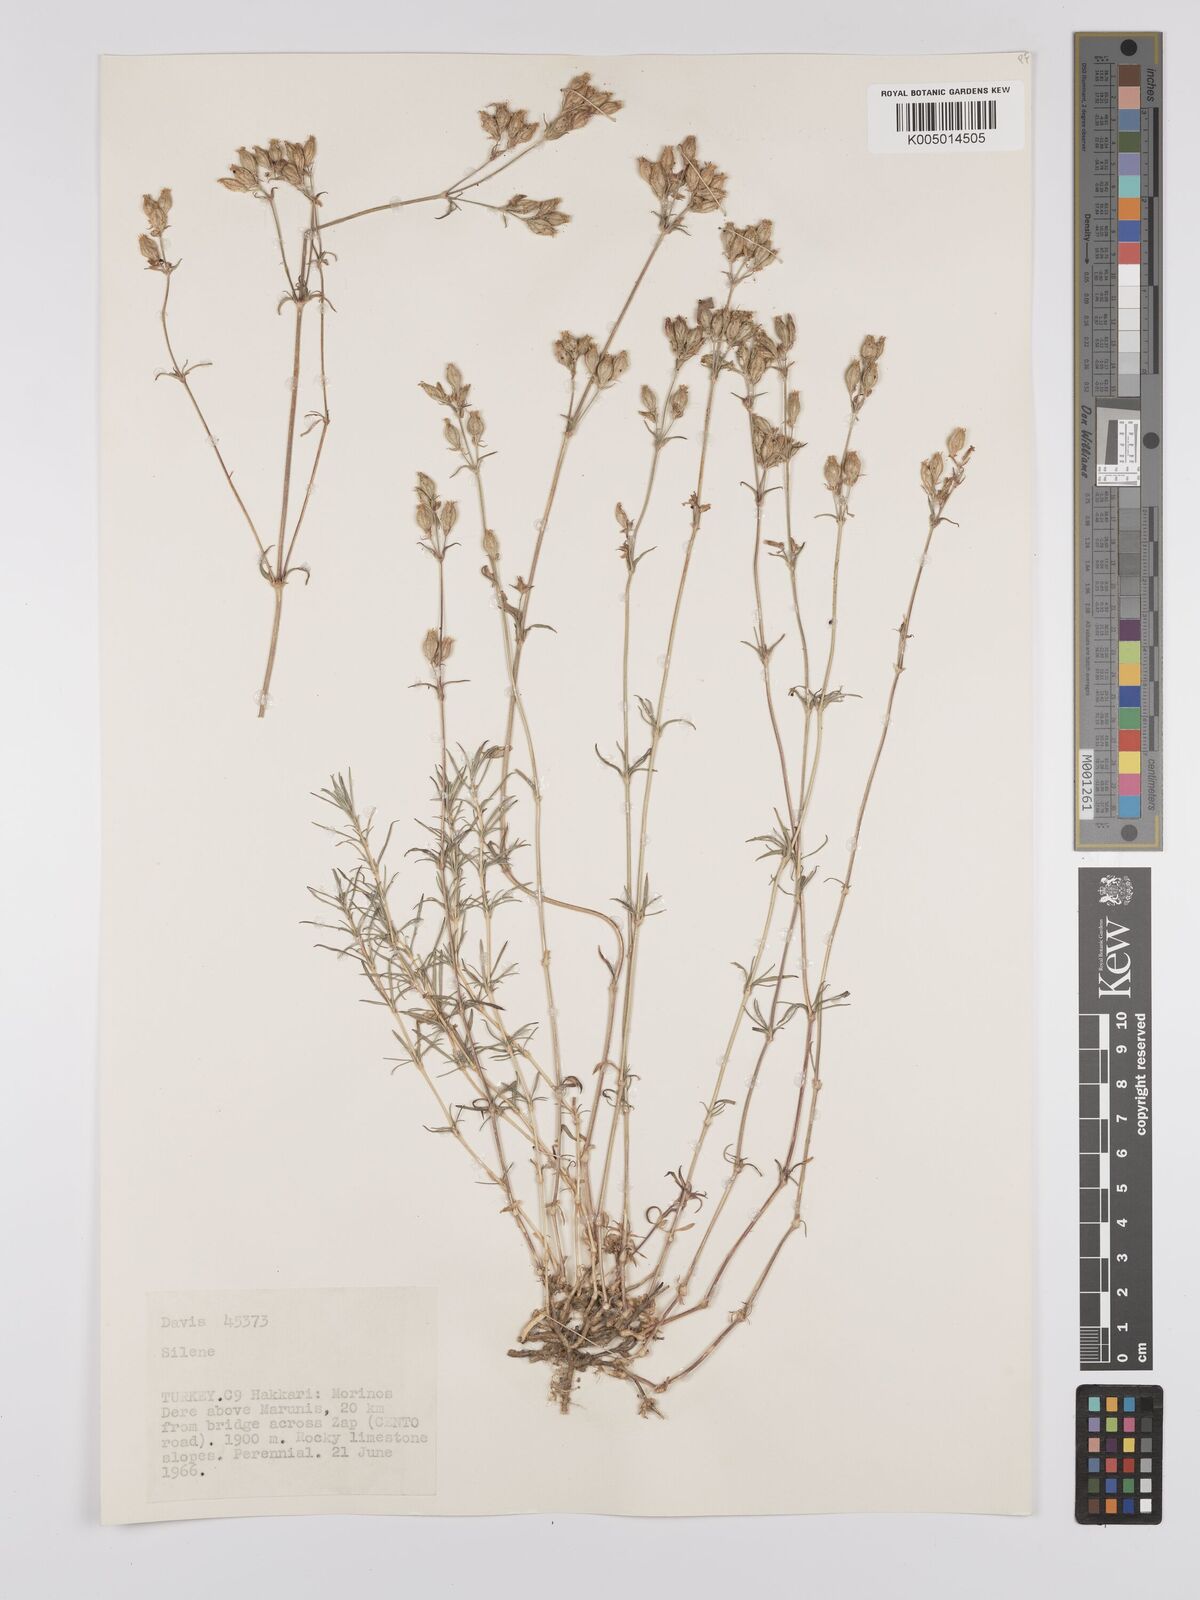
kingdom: Plantae
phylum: Tracheophyta
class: Magnoliopsida
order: Caryophyllales
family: Caryophyllaceae
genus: Silene
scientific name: Silene
